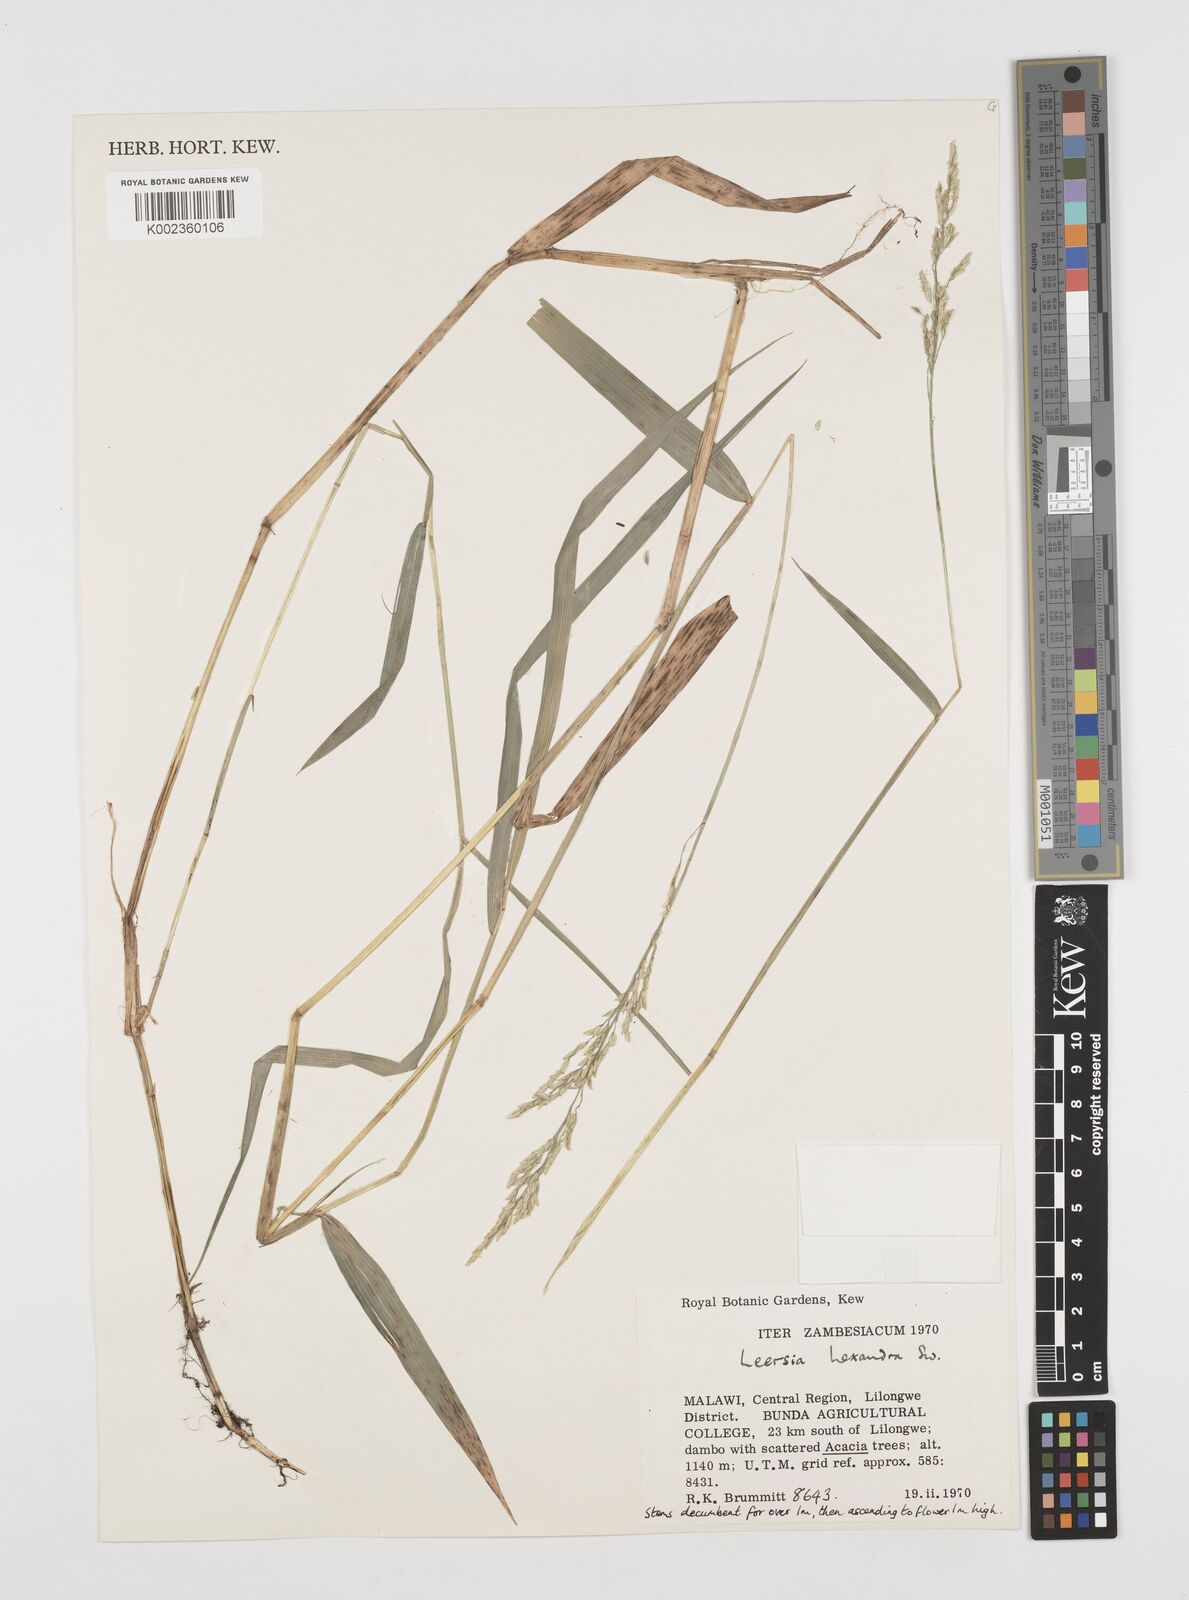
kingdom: Plantae
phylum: Tracheophyta
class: Liliopsida
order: Poales
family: Poaceae
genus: Leersia
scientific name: Leersia hexandra
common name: Southern cut grass
